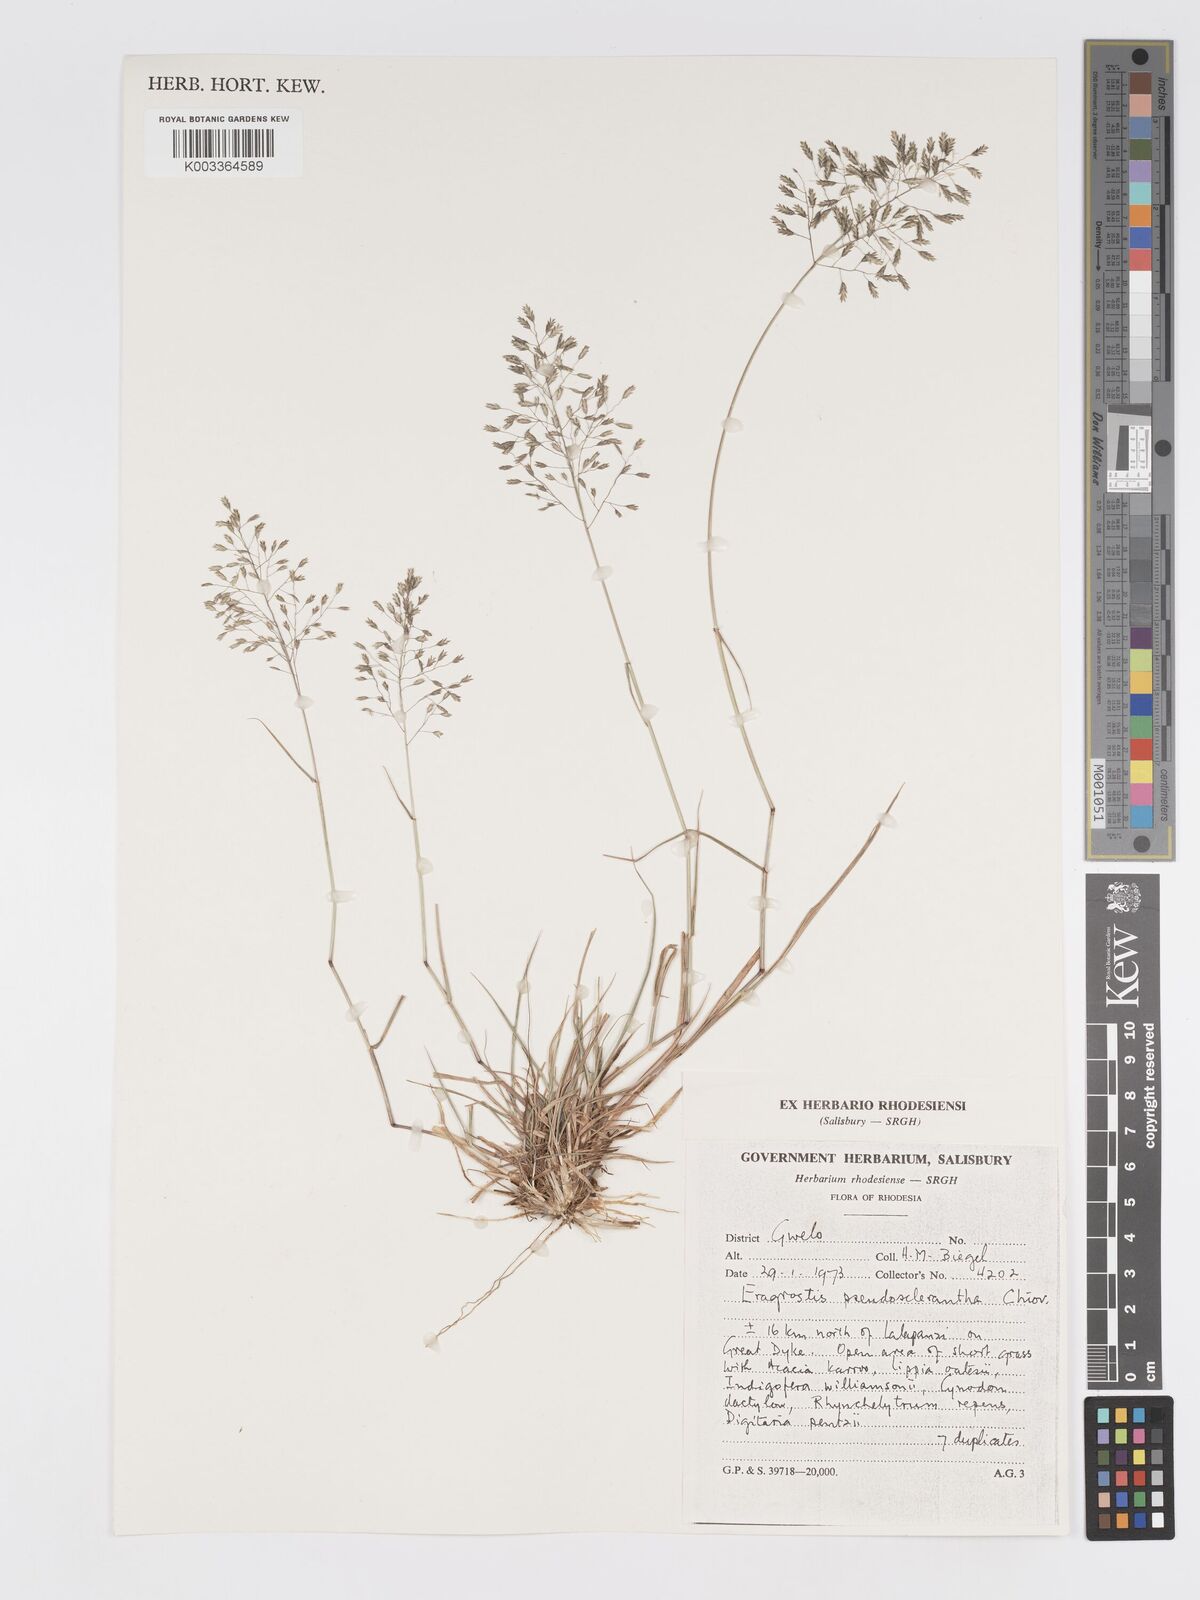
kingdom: Plantae
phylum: Tracheophyta
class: Liliopsida
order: Poales
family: Poaceae
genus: Eragrostis
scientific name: Eragrostis patentipilosa
